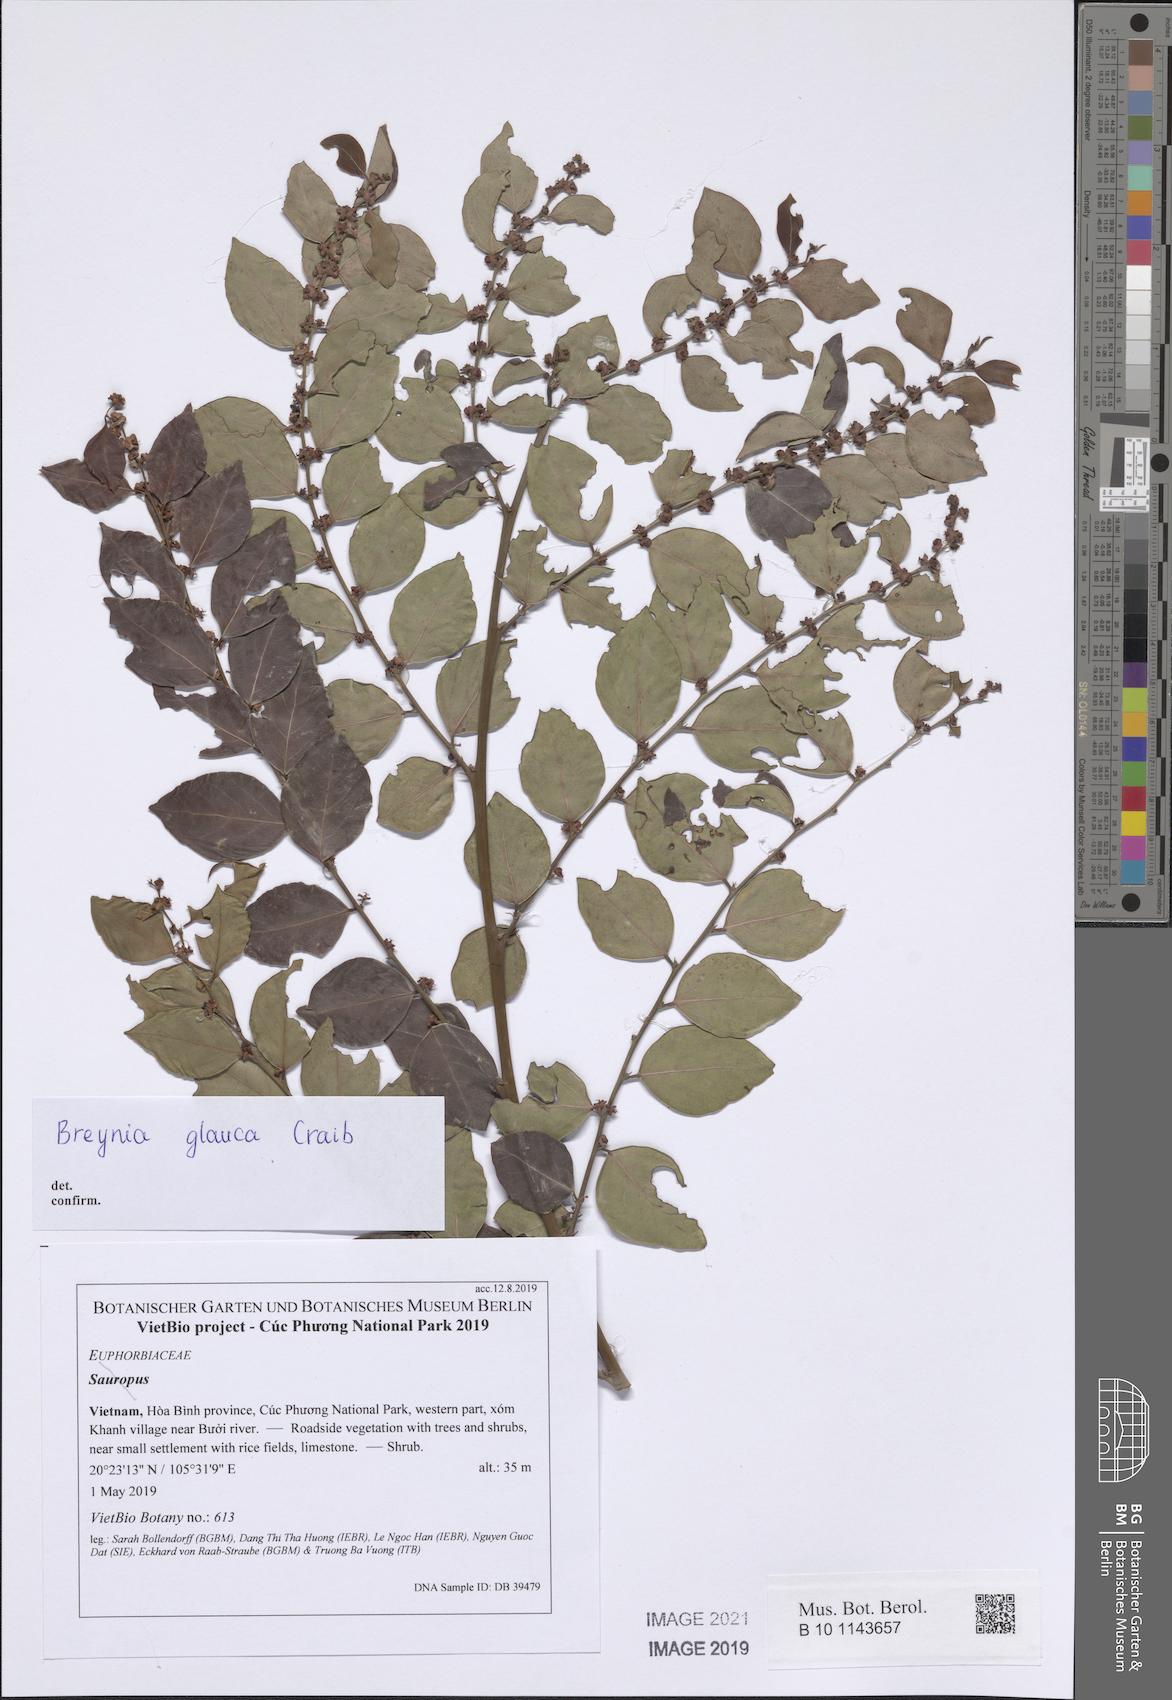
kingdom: Plantae
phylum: Tracheophyta
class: Magnoliopsida
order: Malpighiales
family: Phyllanthaceae
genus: Breynia
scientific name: Breynia glauca
